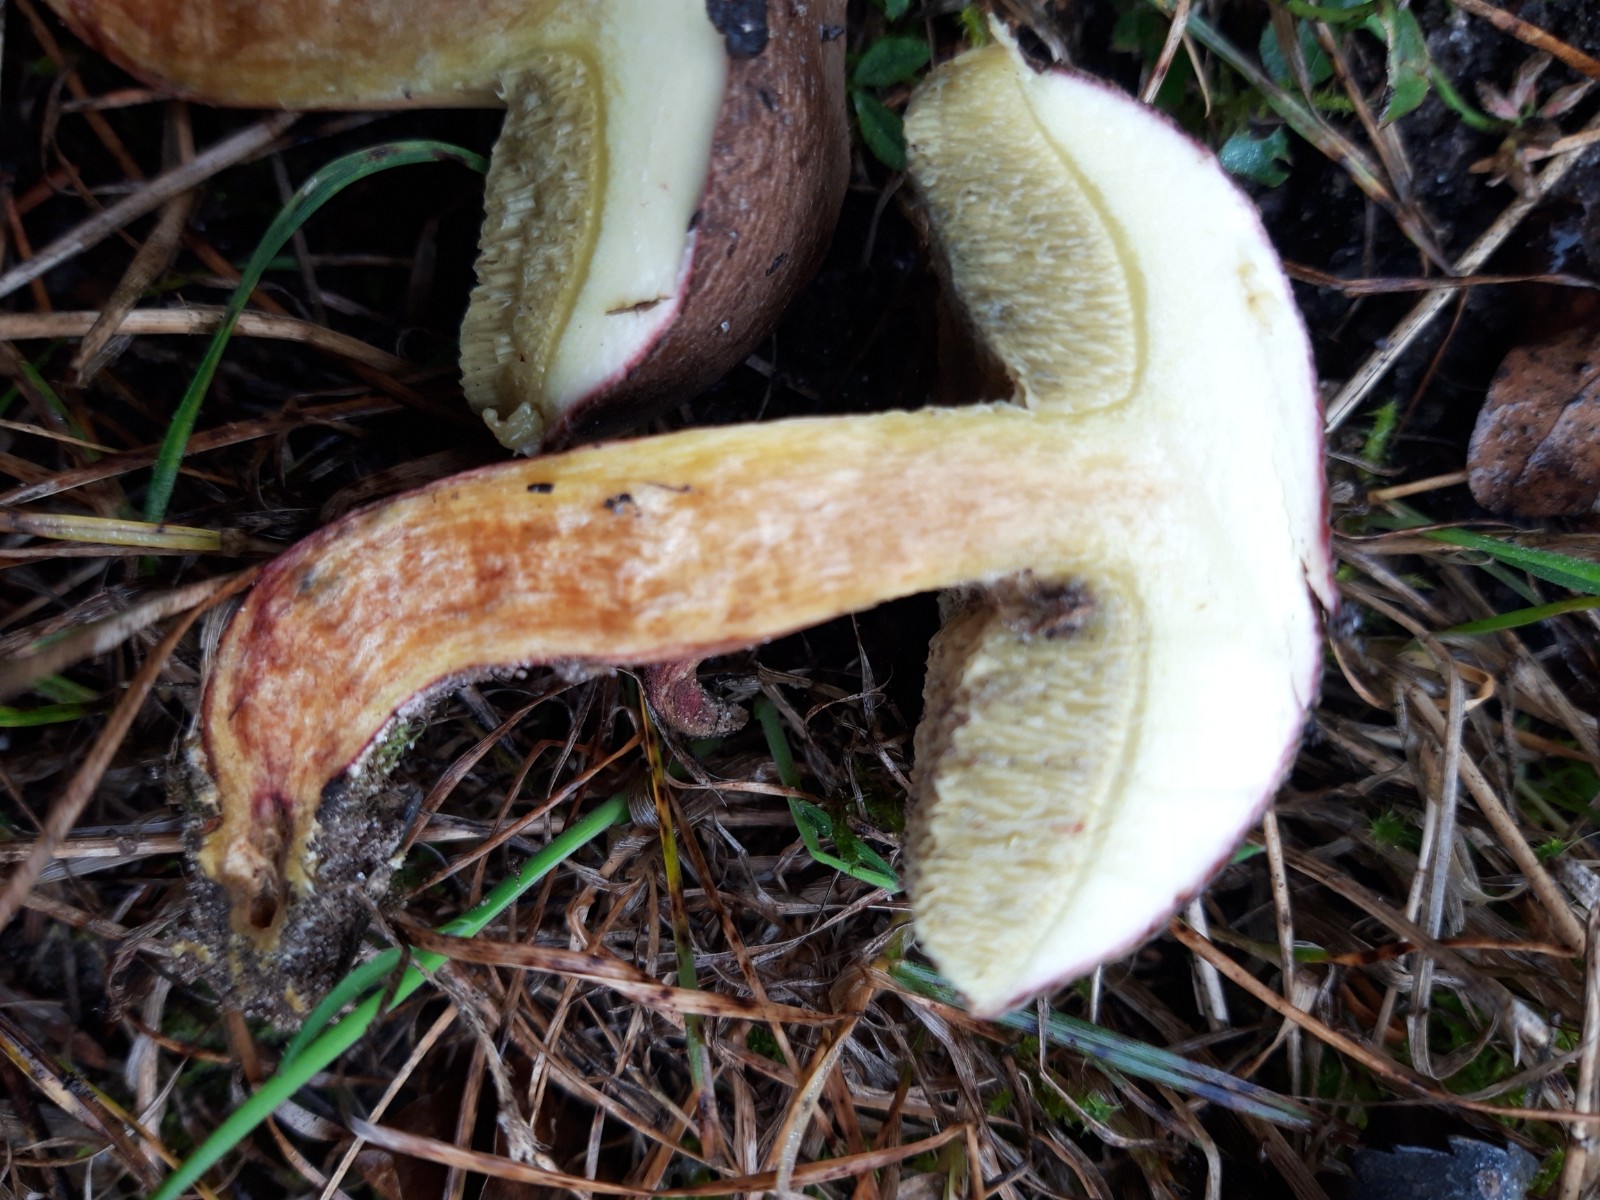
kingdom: Fungi
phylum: Basidiomycota
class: Agaricomycetes
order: Boletales
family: Boletaceae
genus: Xerocomellus
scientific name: Xerocomellus
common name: dværgrørhat
